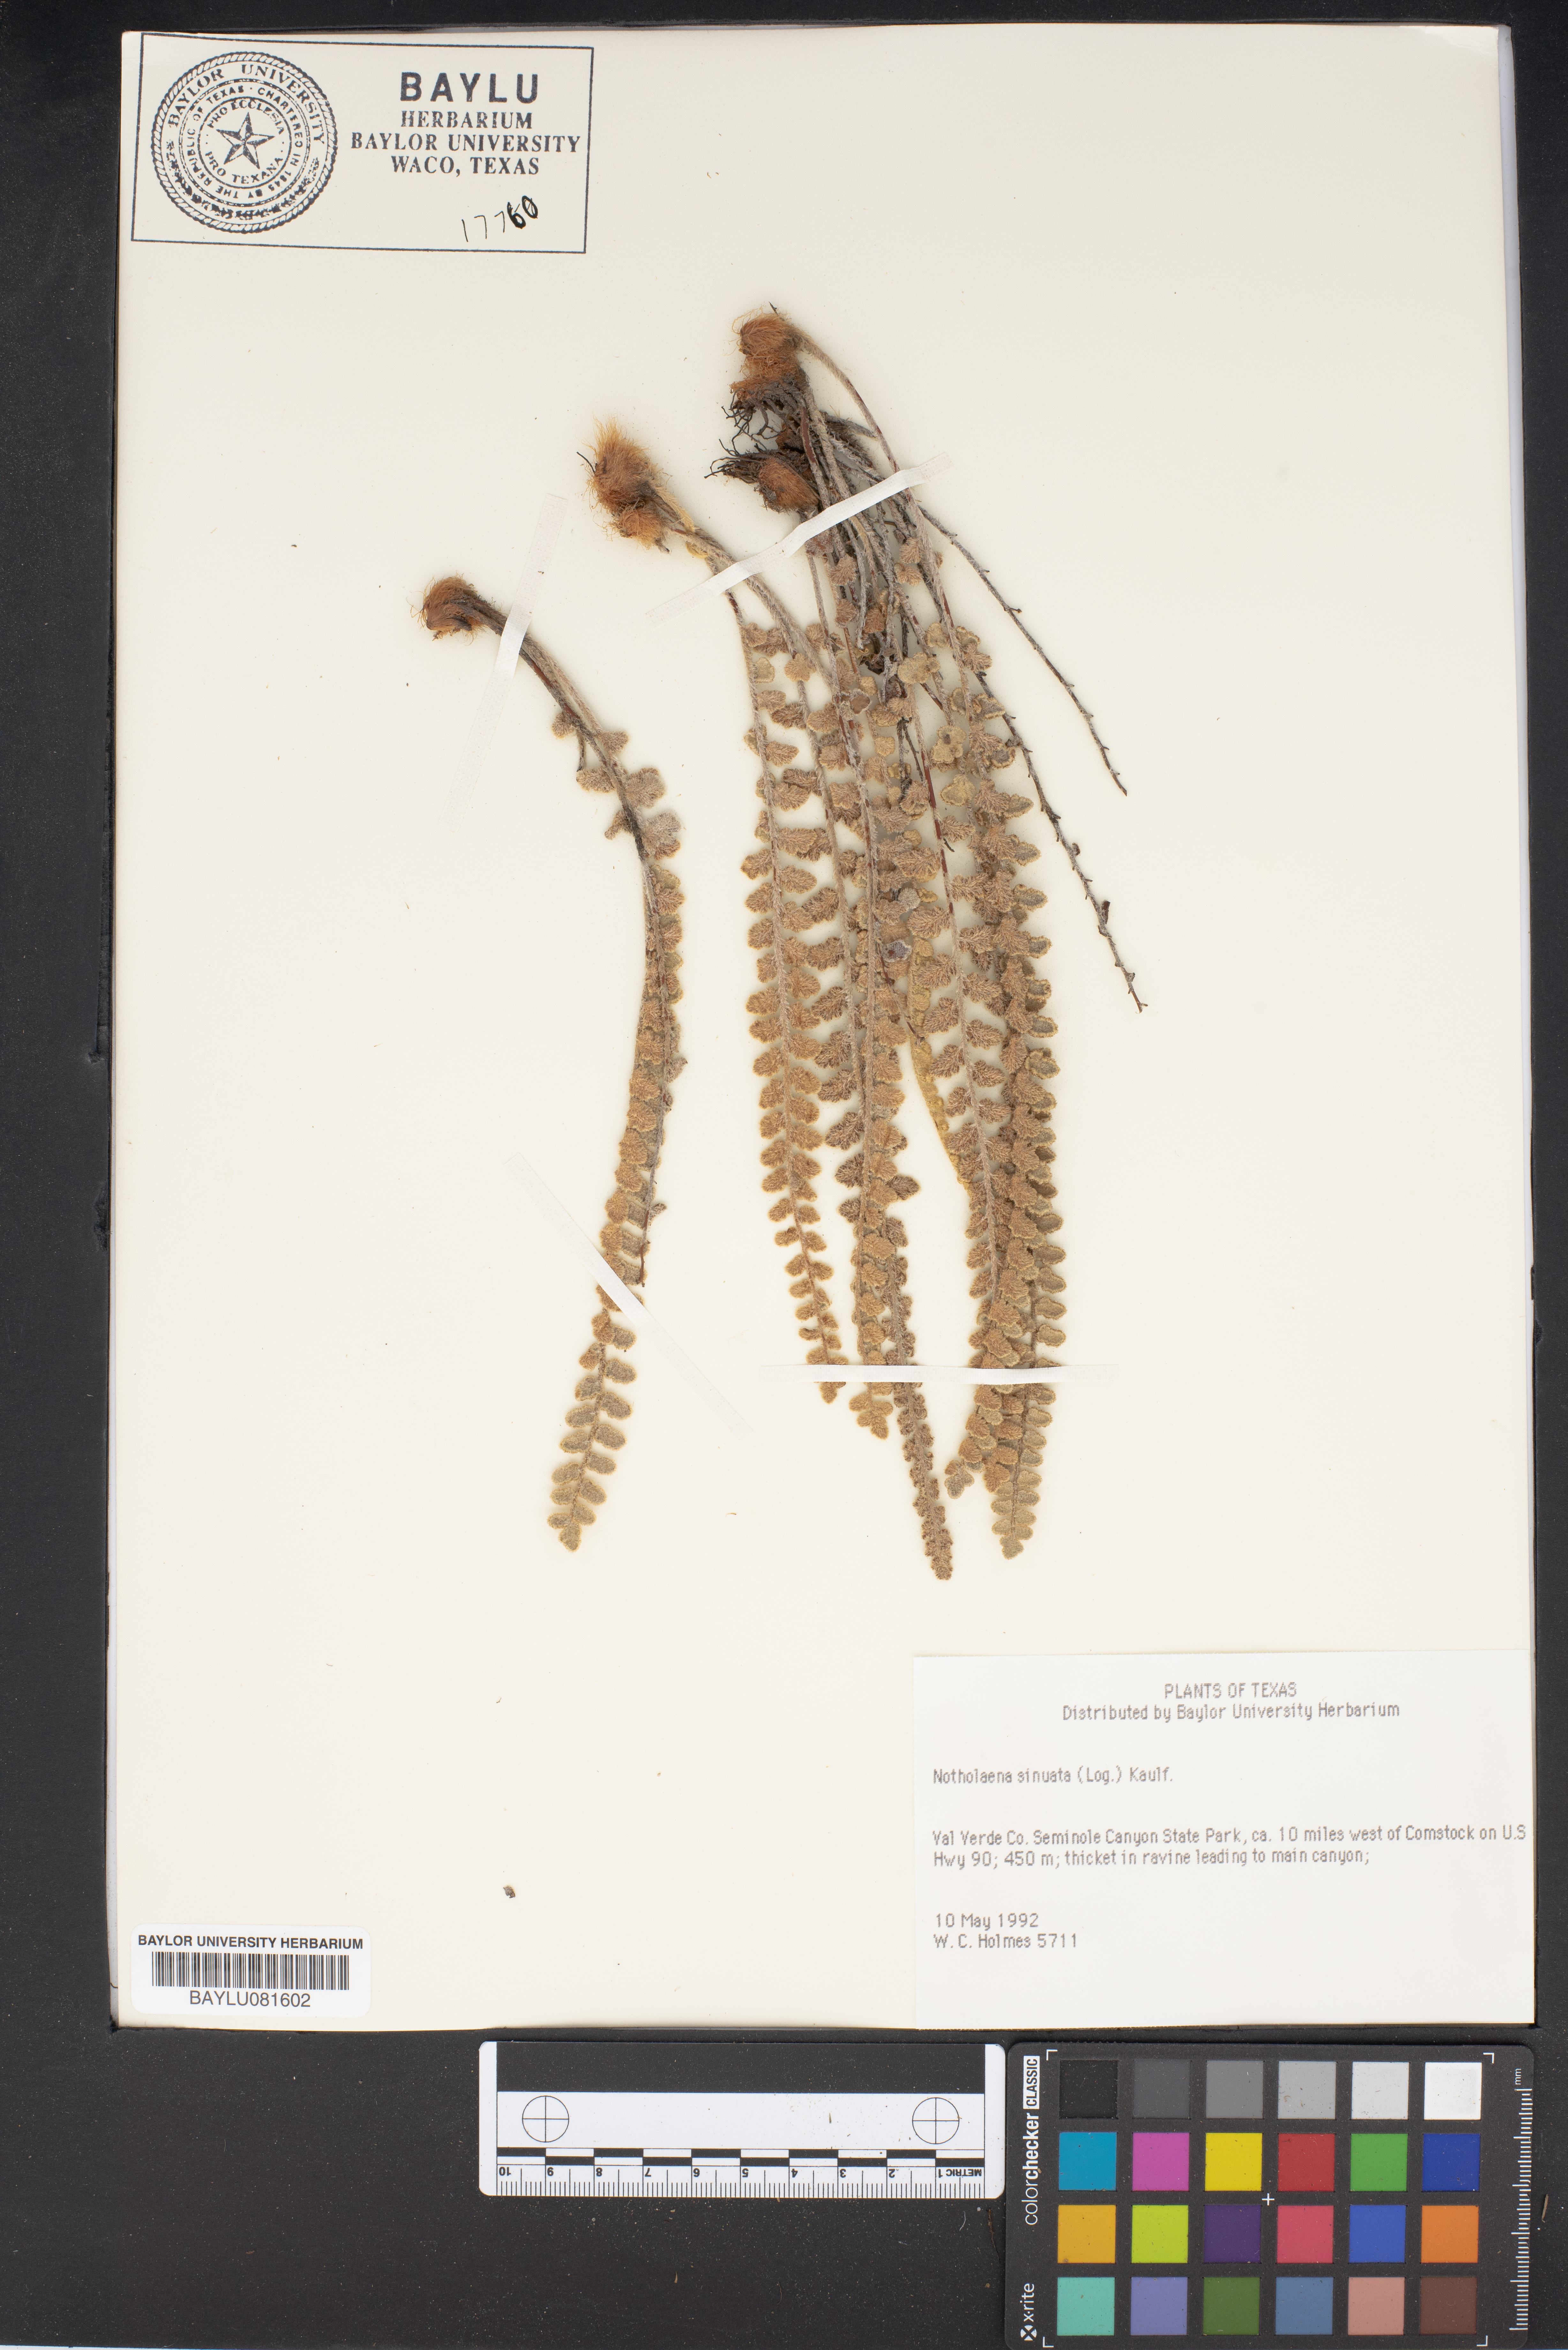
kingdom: Plantae
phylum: Tracheophyta
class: Polypodiopsida
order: Polypodiales
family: Pteridaceae
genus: Astrolepis
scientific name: Astrolepis sinuata
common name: Wavy scaly cloakfern
